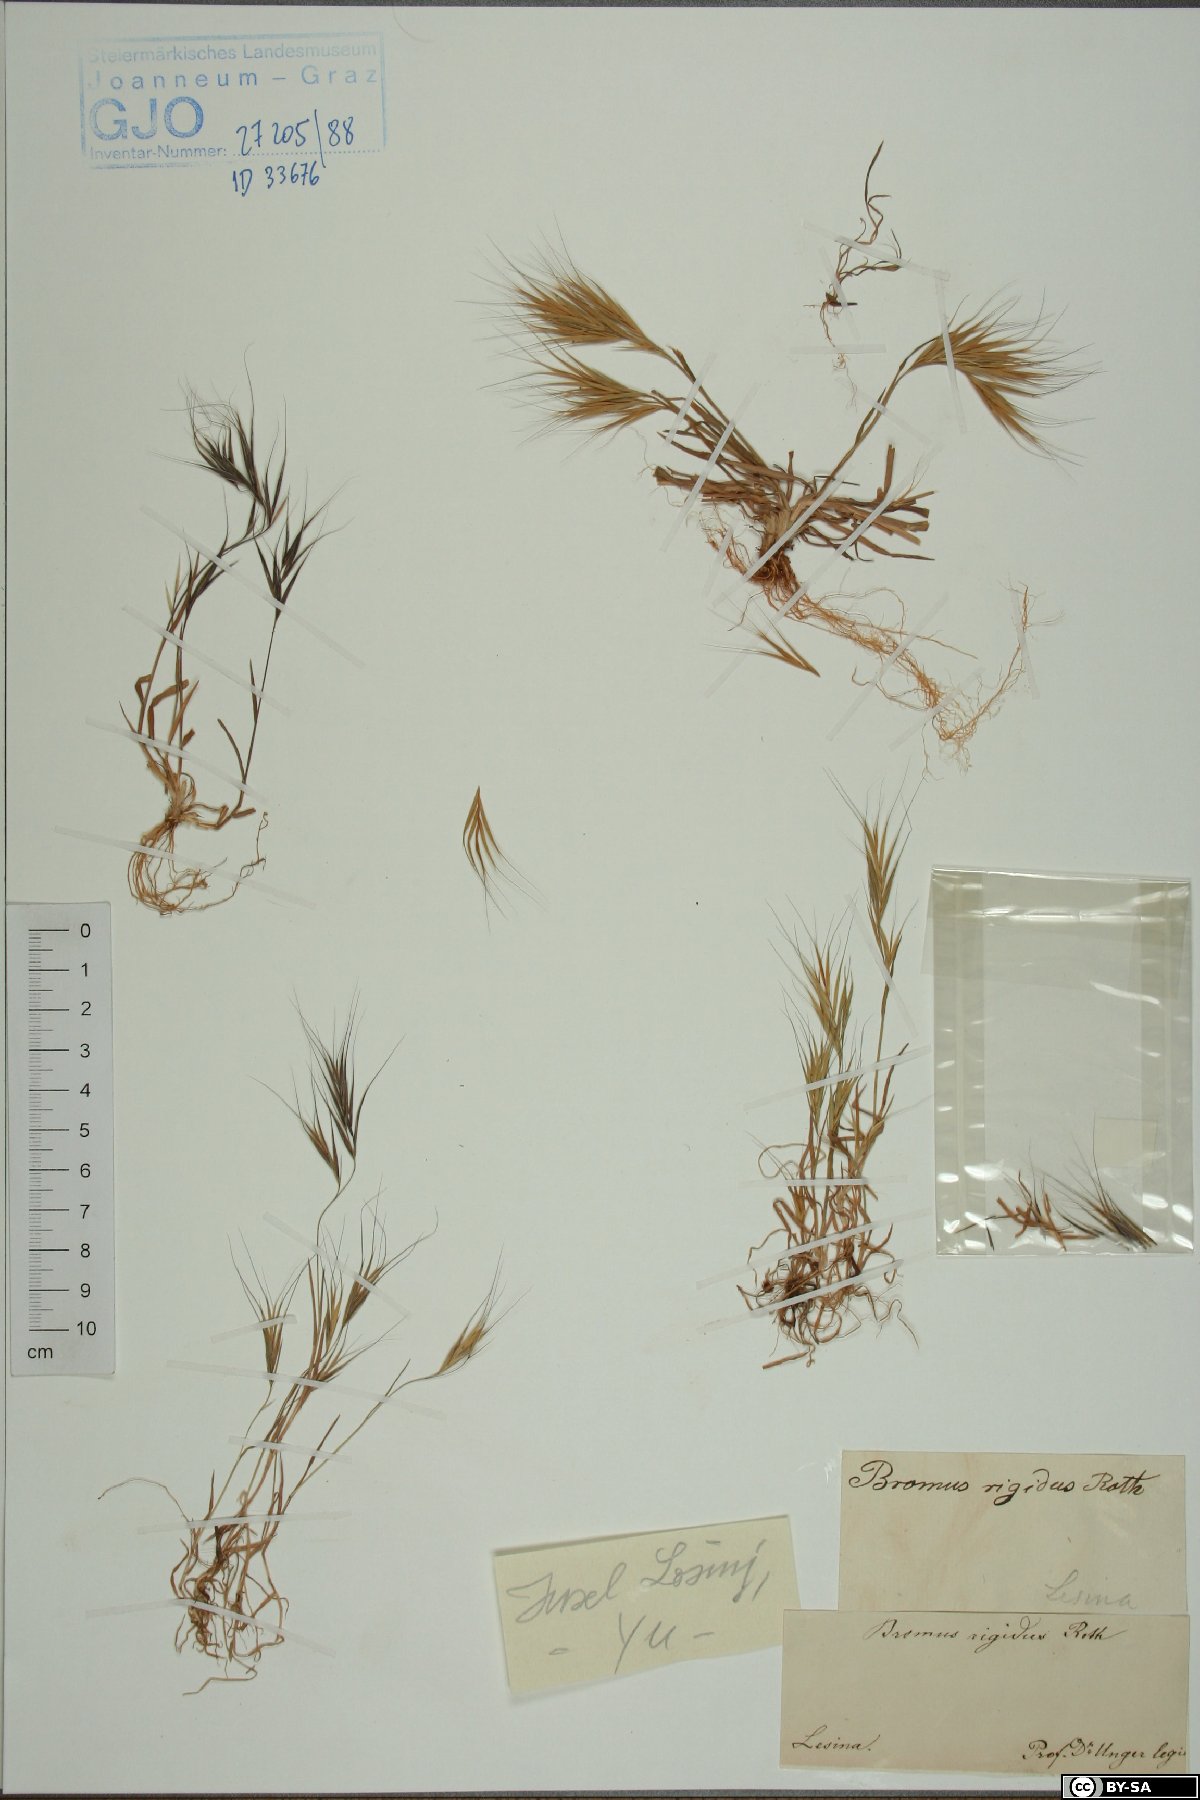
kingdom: Plantae
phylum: Tracheophyta
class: Liliopsida
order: Poales
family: Poaceae
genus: Bromus
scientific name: Bromus rigidus
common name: Ripgut brome
